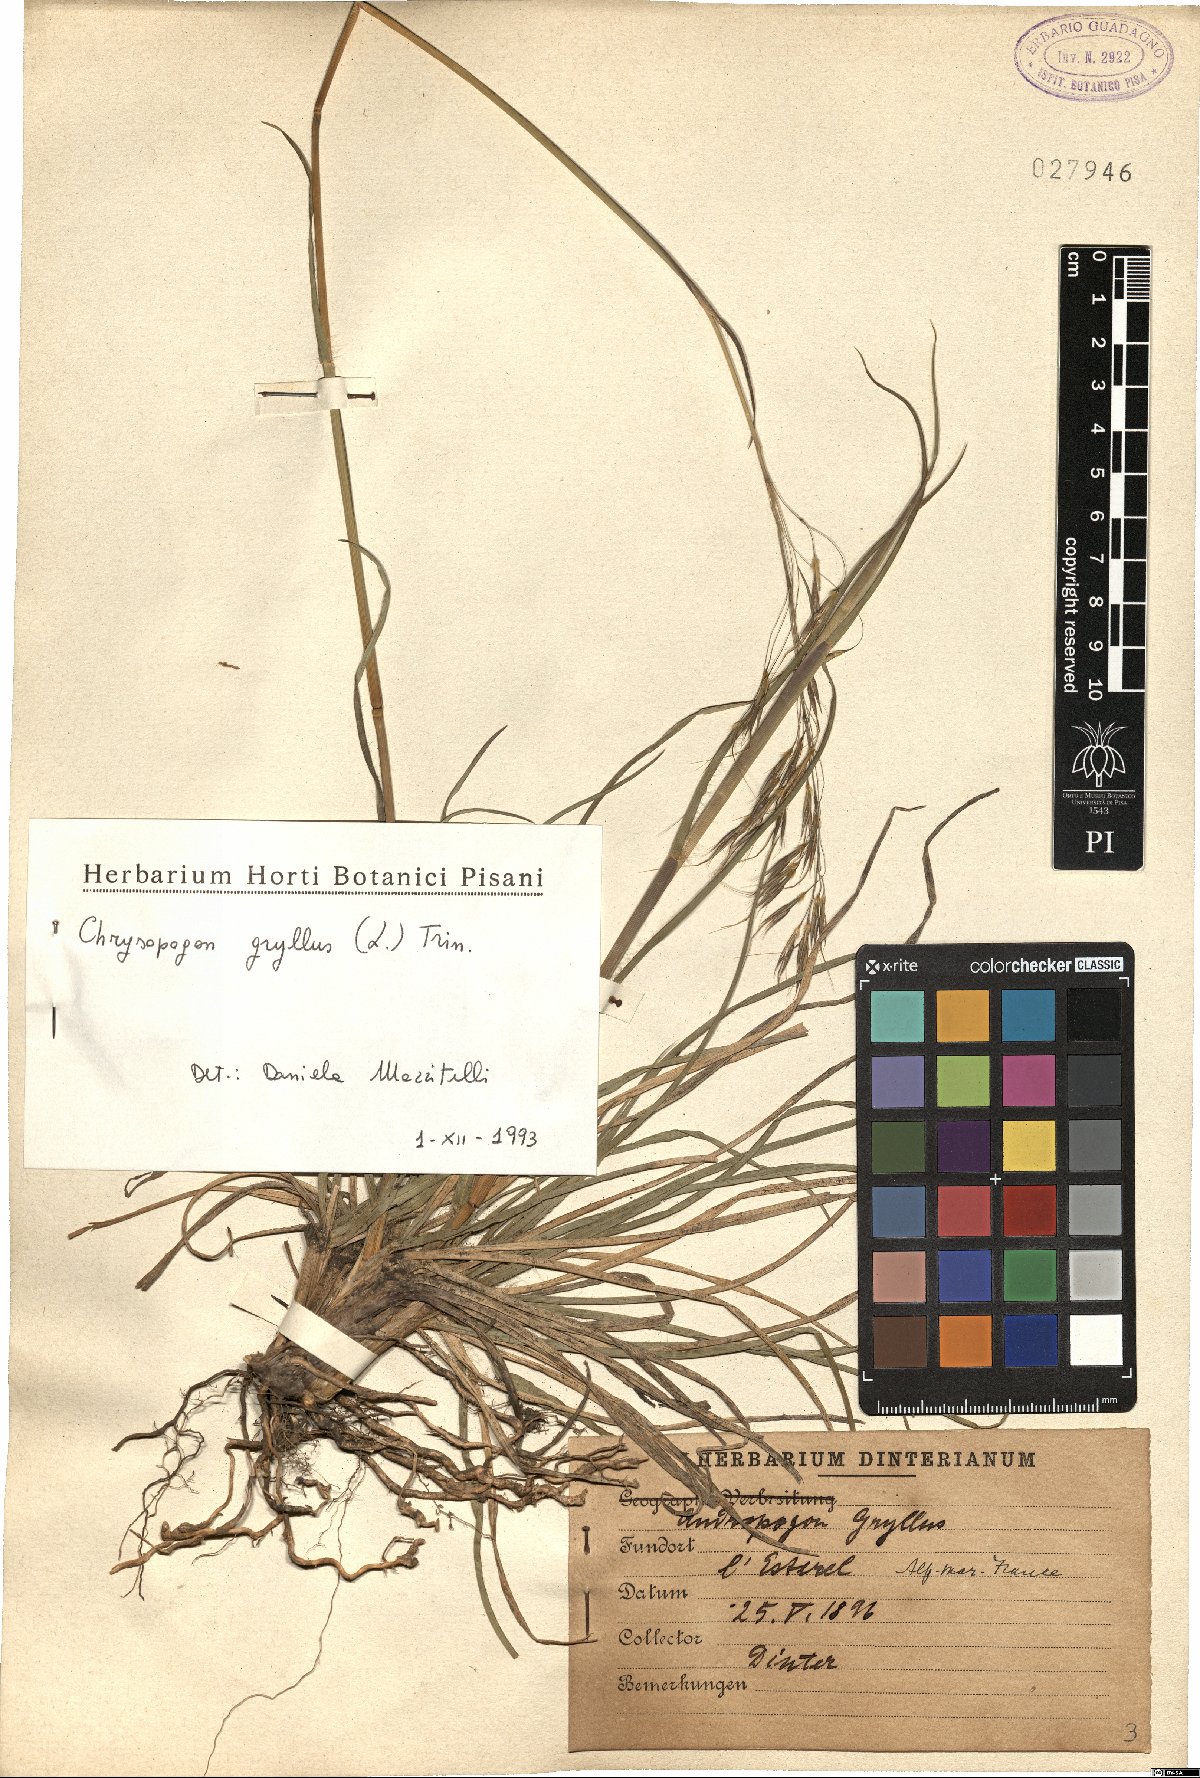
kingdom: Plantae
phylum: Tracheophyta
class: Liliopsida
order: Poales
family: Poaceae
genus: Chrysopogon
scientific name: Chrysopogon gryllus
